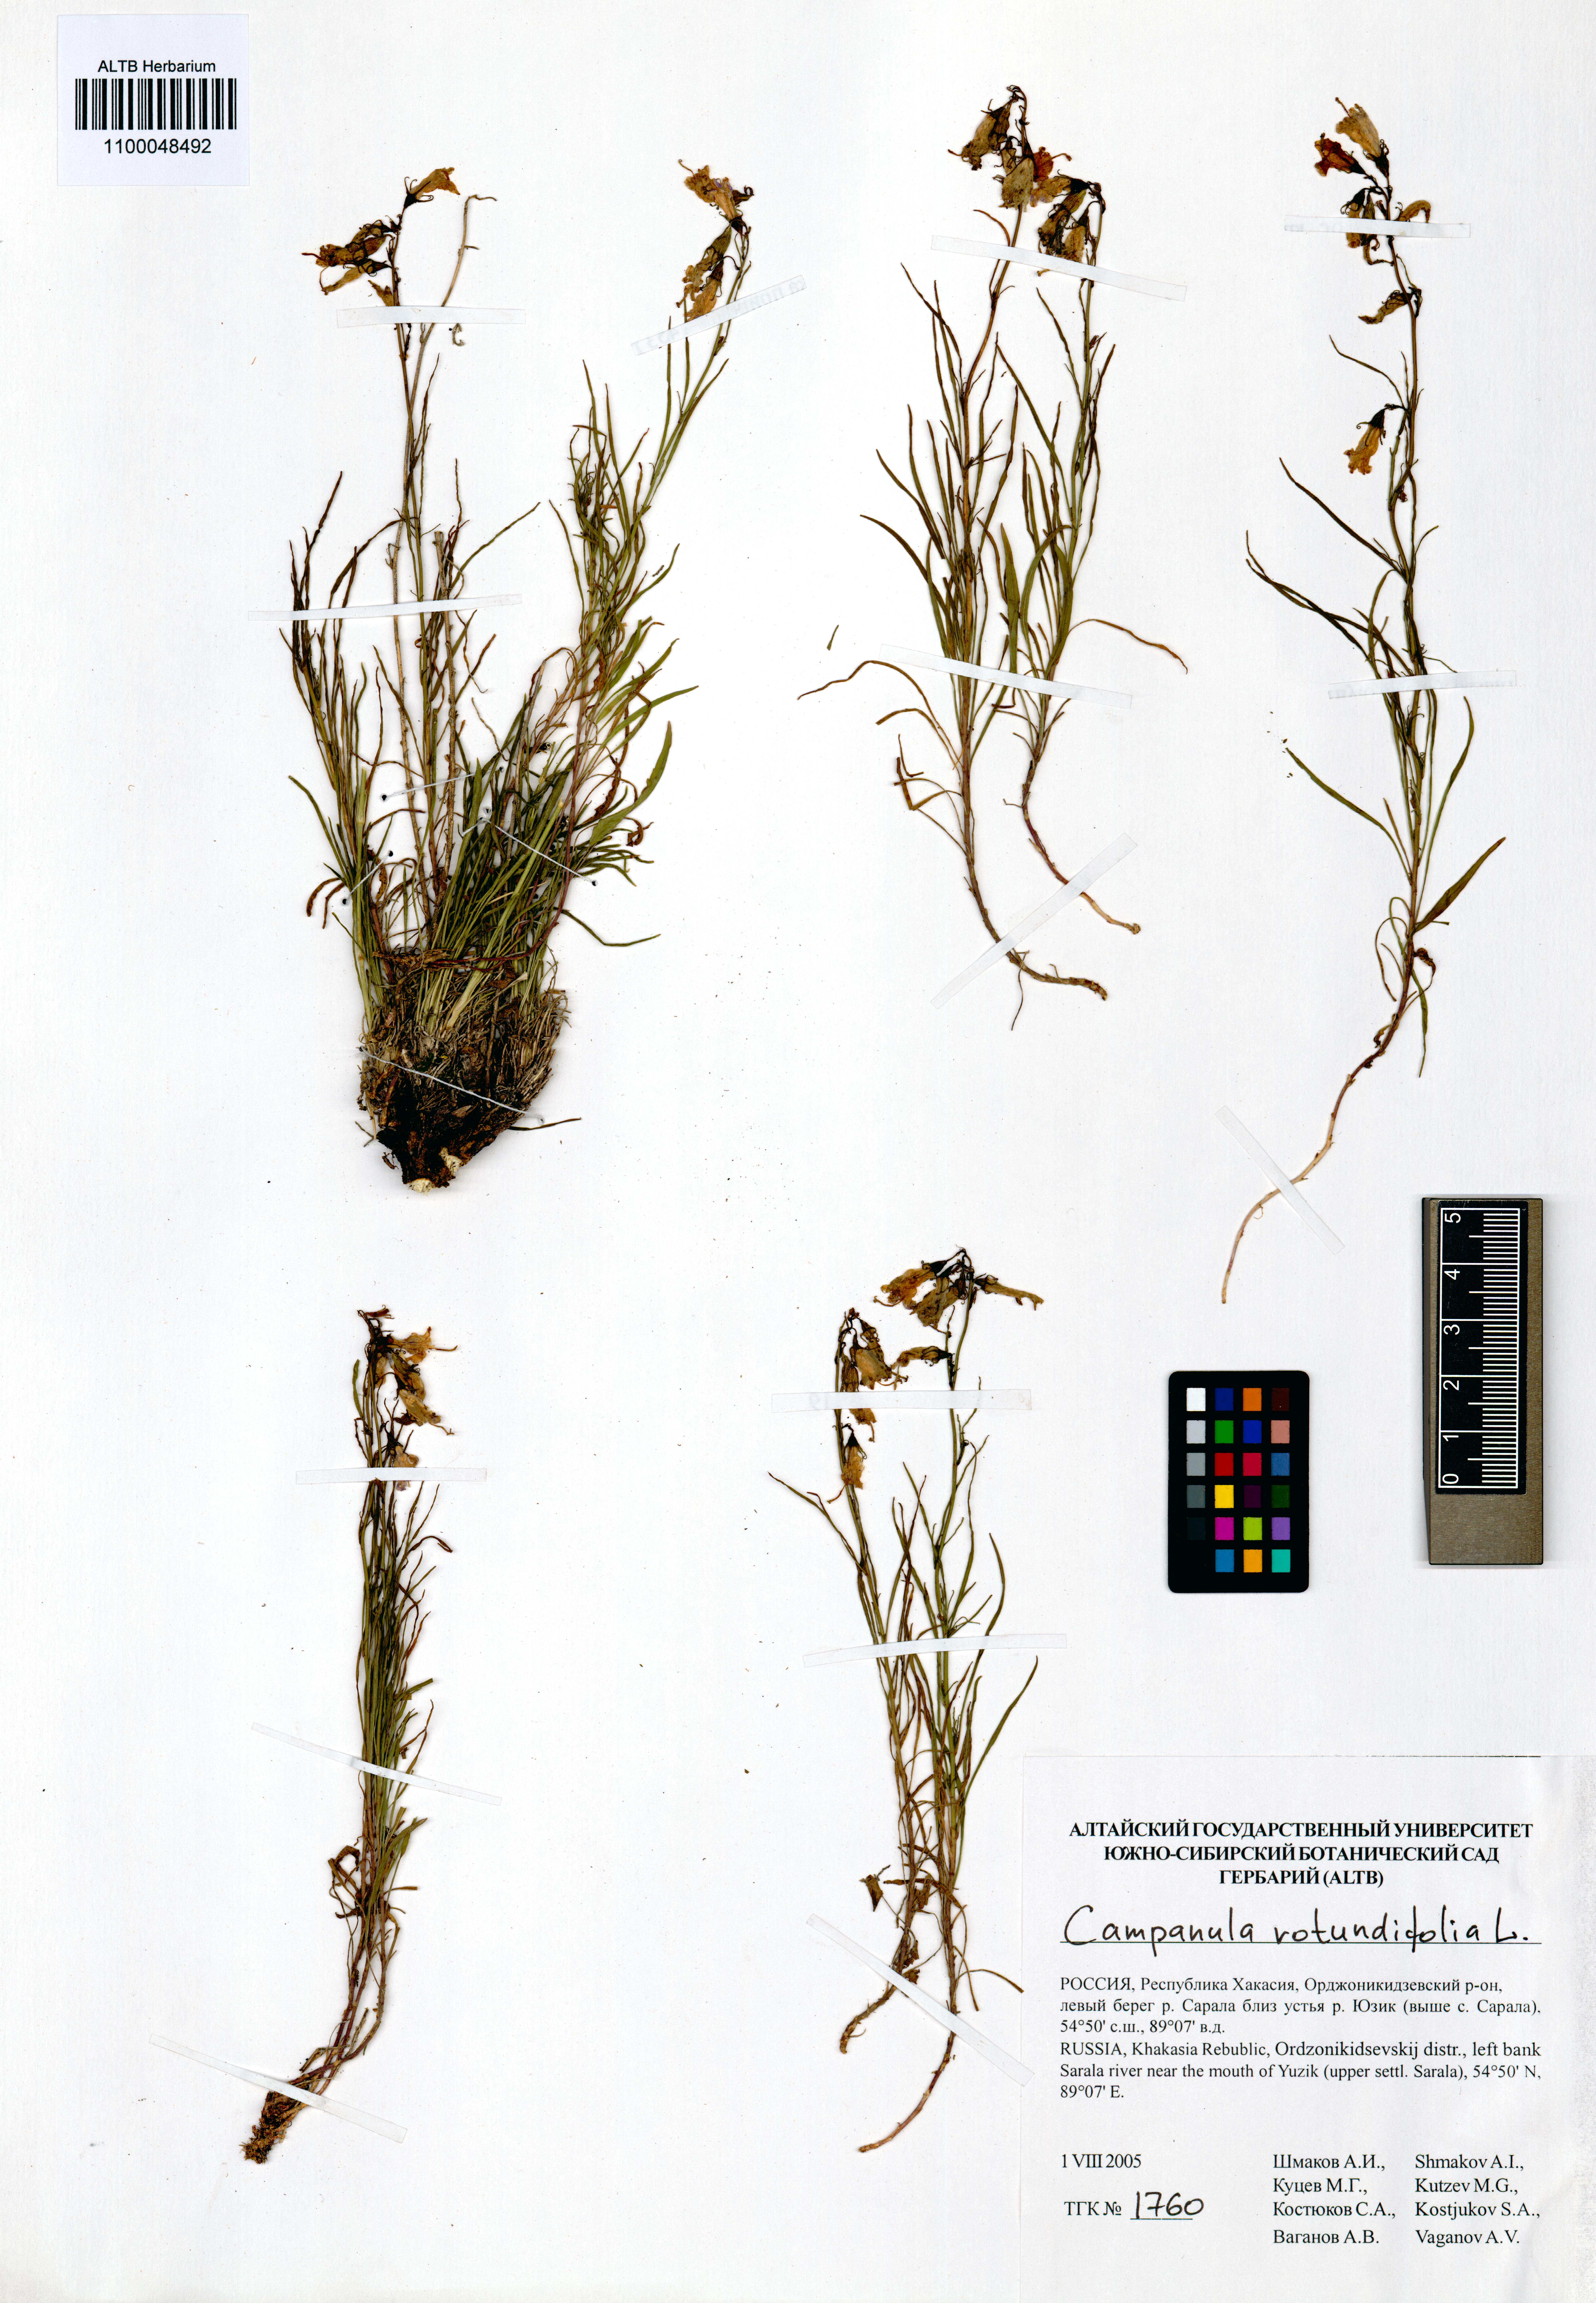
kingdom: Plantae
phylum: Tracheophyta
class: Magnoliopsida
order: Asterales
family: Campanulaceae
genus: Campanula
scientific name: Campanula rotundifolia
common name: Harebell
